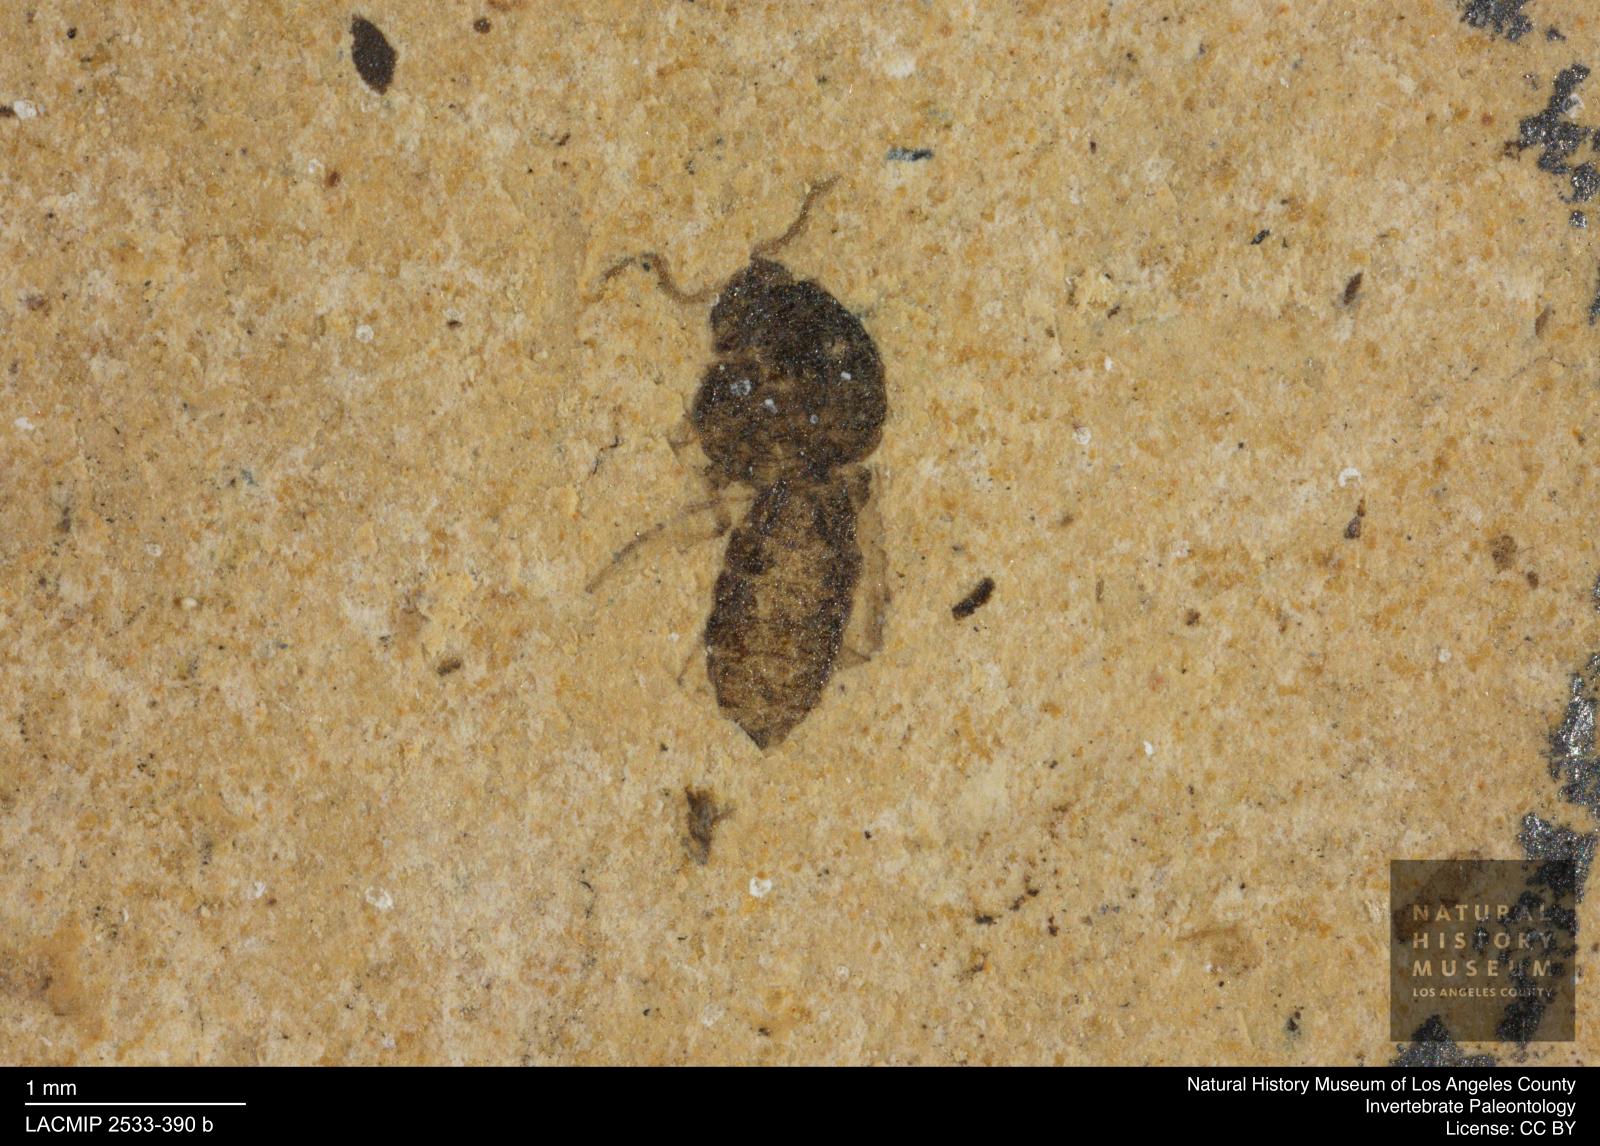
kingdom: Animalia
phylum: Arthropoda
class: Insecta
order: Diptera
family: Ceratopogonidae
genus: Culicoides
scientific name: Culicoides obscuratus
